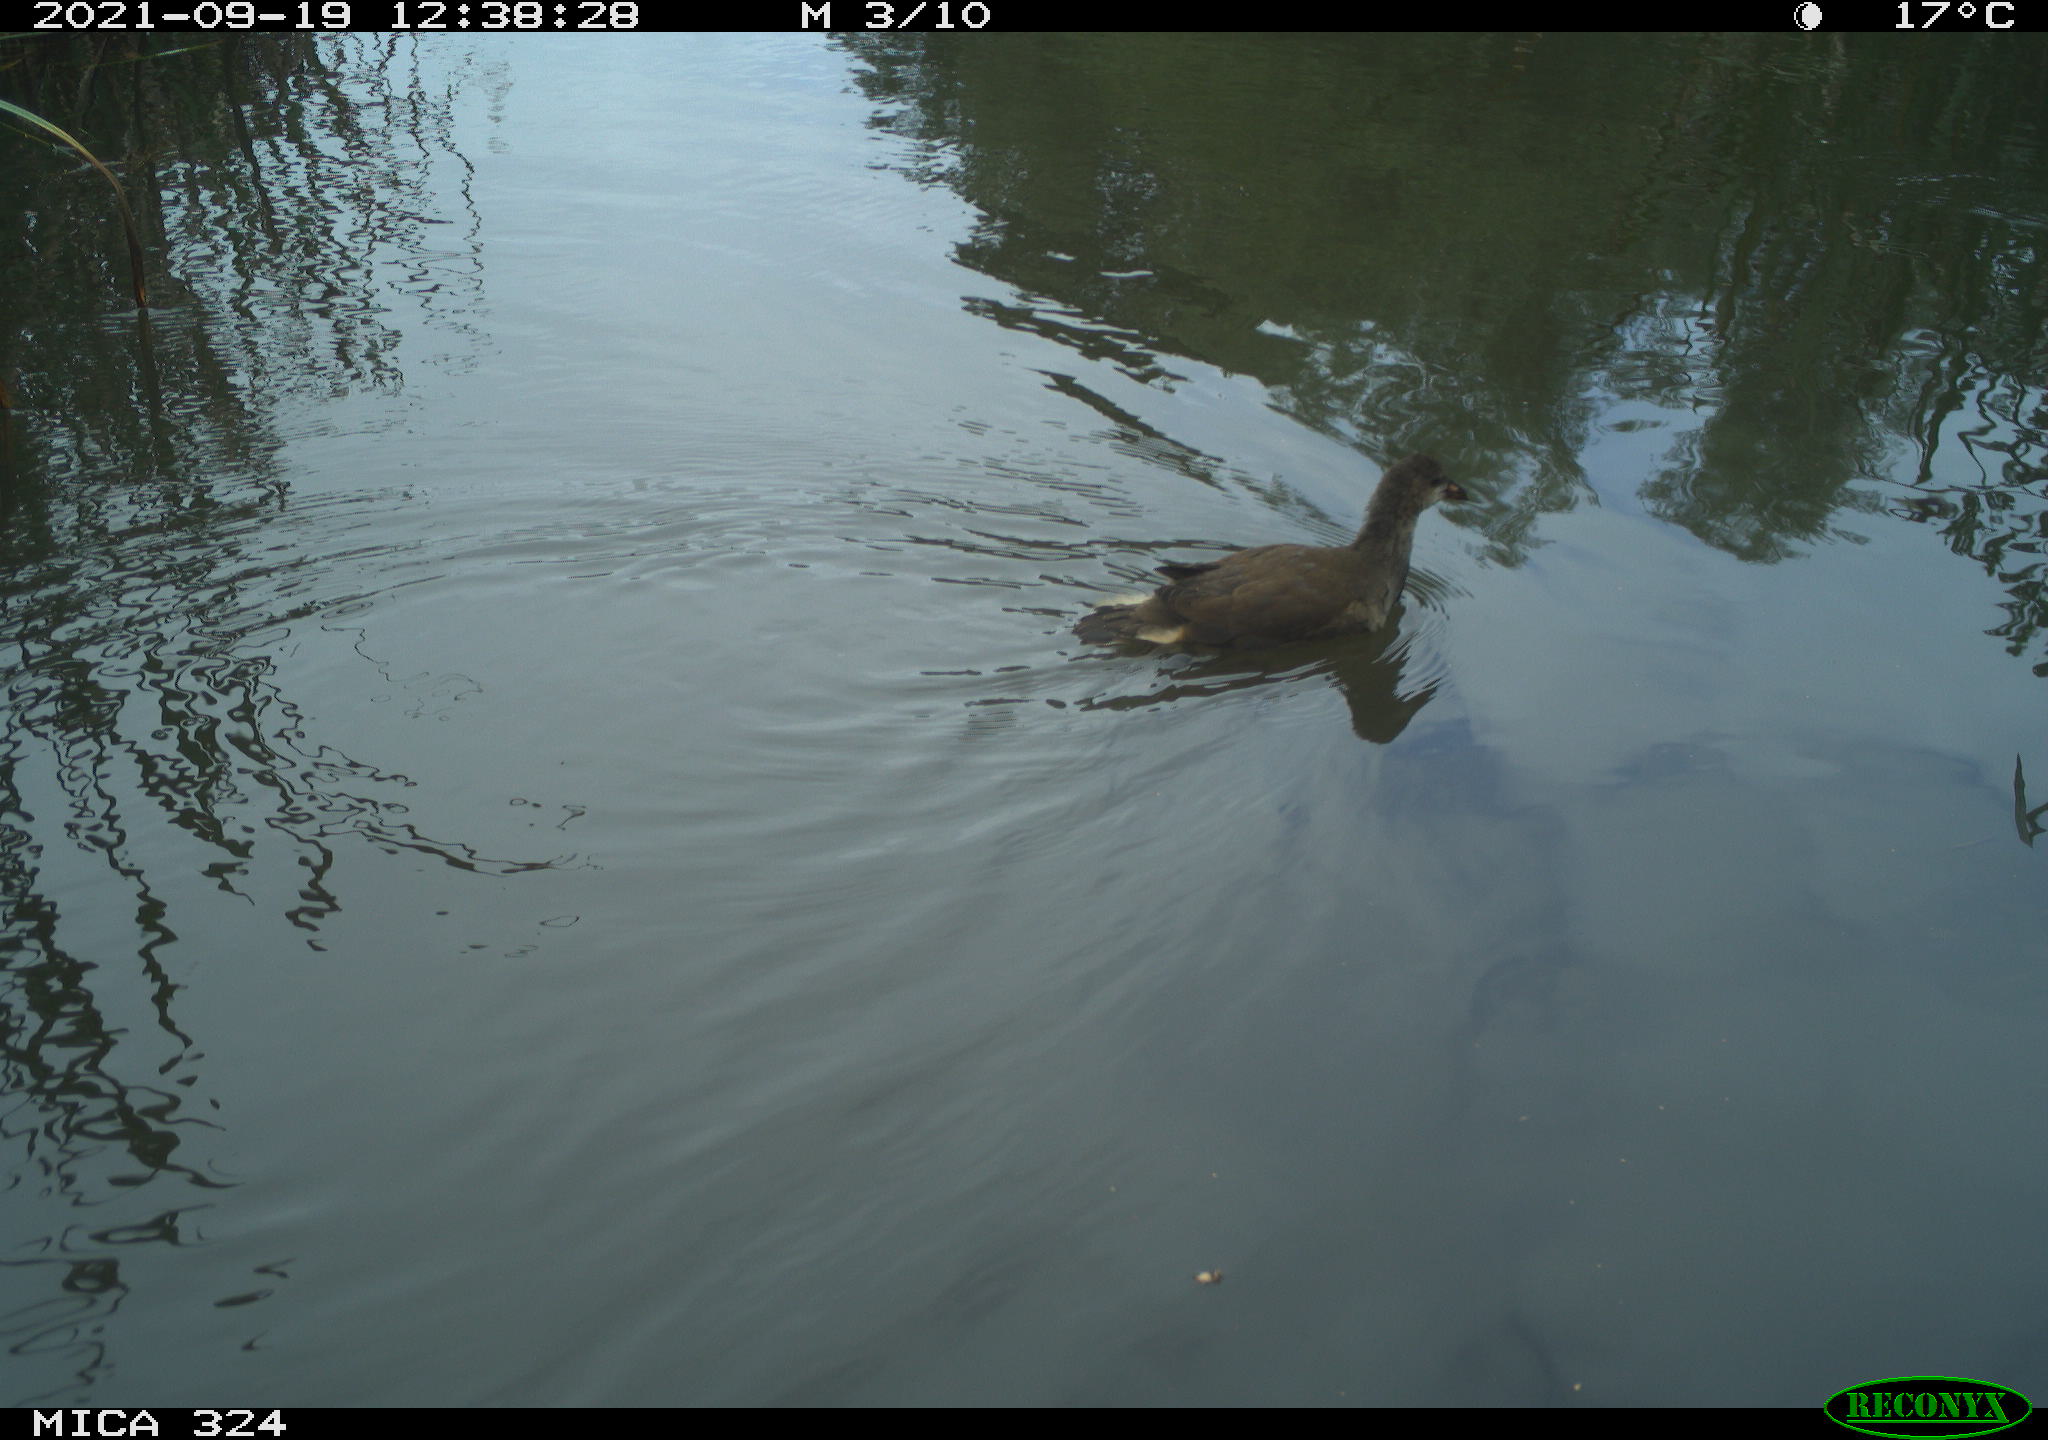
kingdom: Animalia
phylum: Chordata
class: Aves
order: Gruiformes
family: Rallidae
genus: Gallinula
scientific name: Gallinula chloropus
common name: Common moorhen
